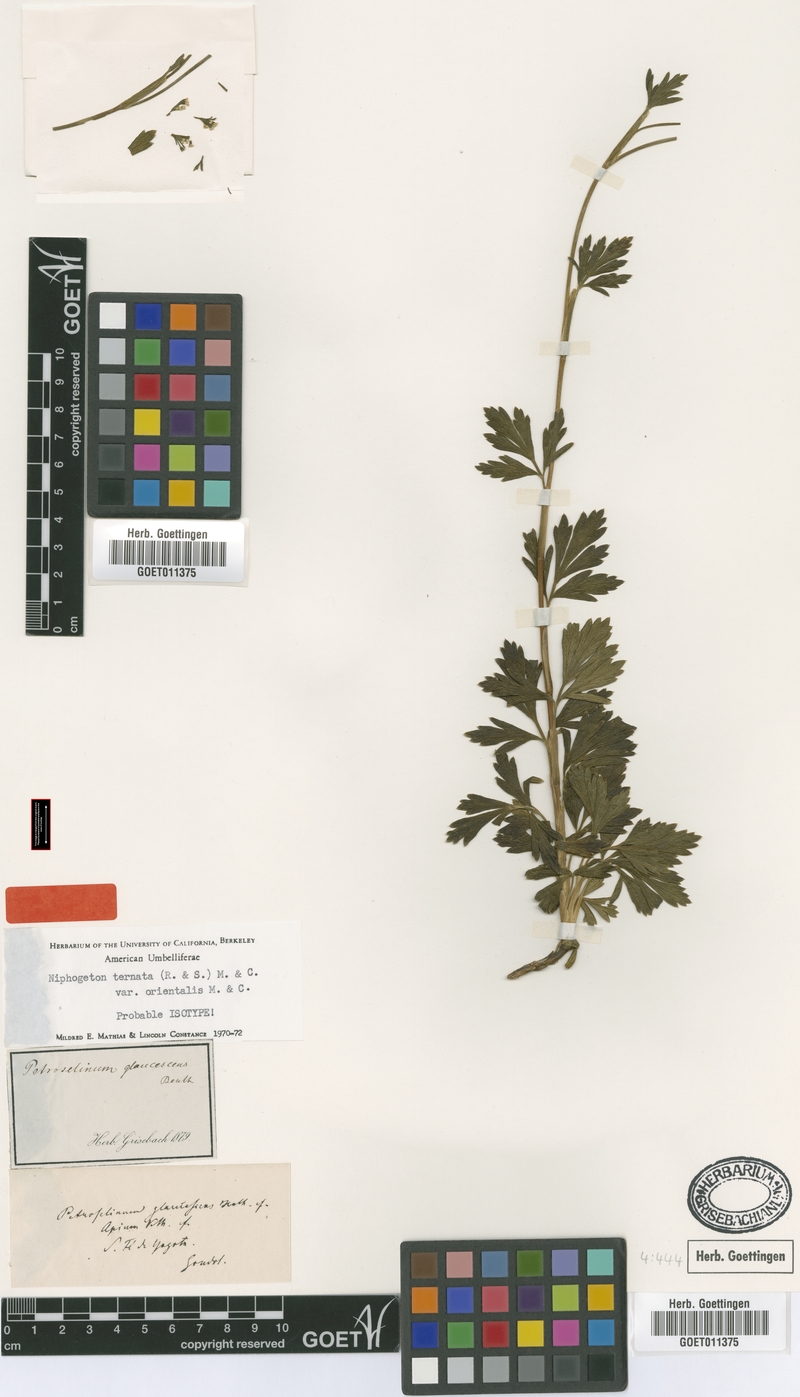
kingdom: Plantae
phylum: Tracheophyta
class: Magnoliopsida
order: Apiales
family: Apiaceae
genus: Niphogeton
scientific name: Niphogeton ternata
